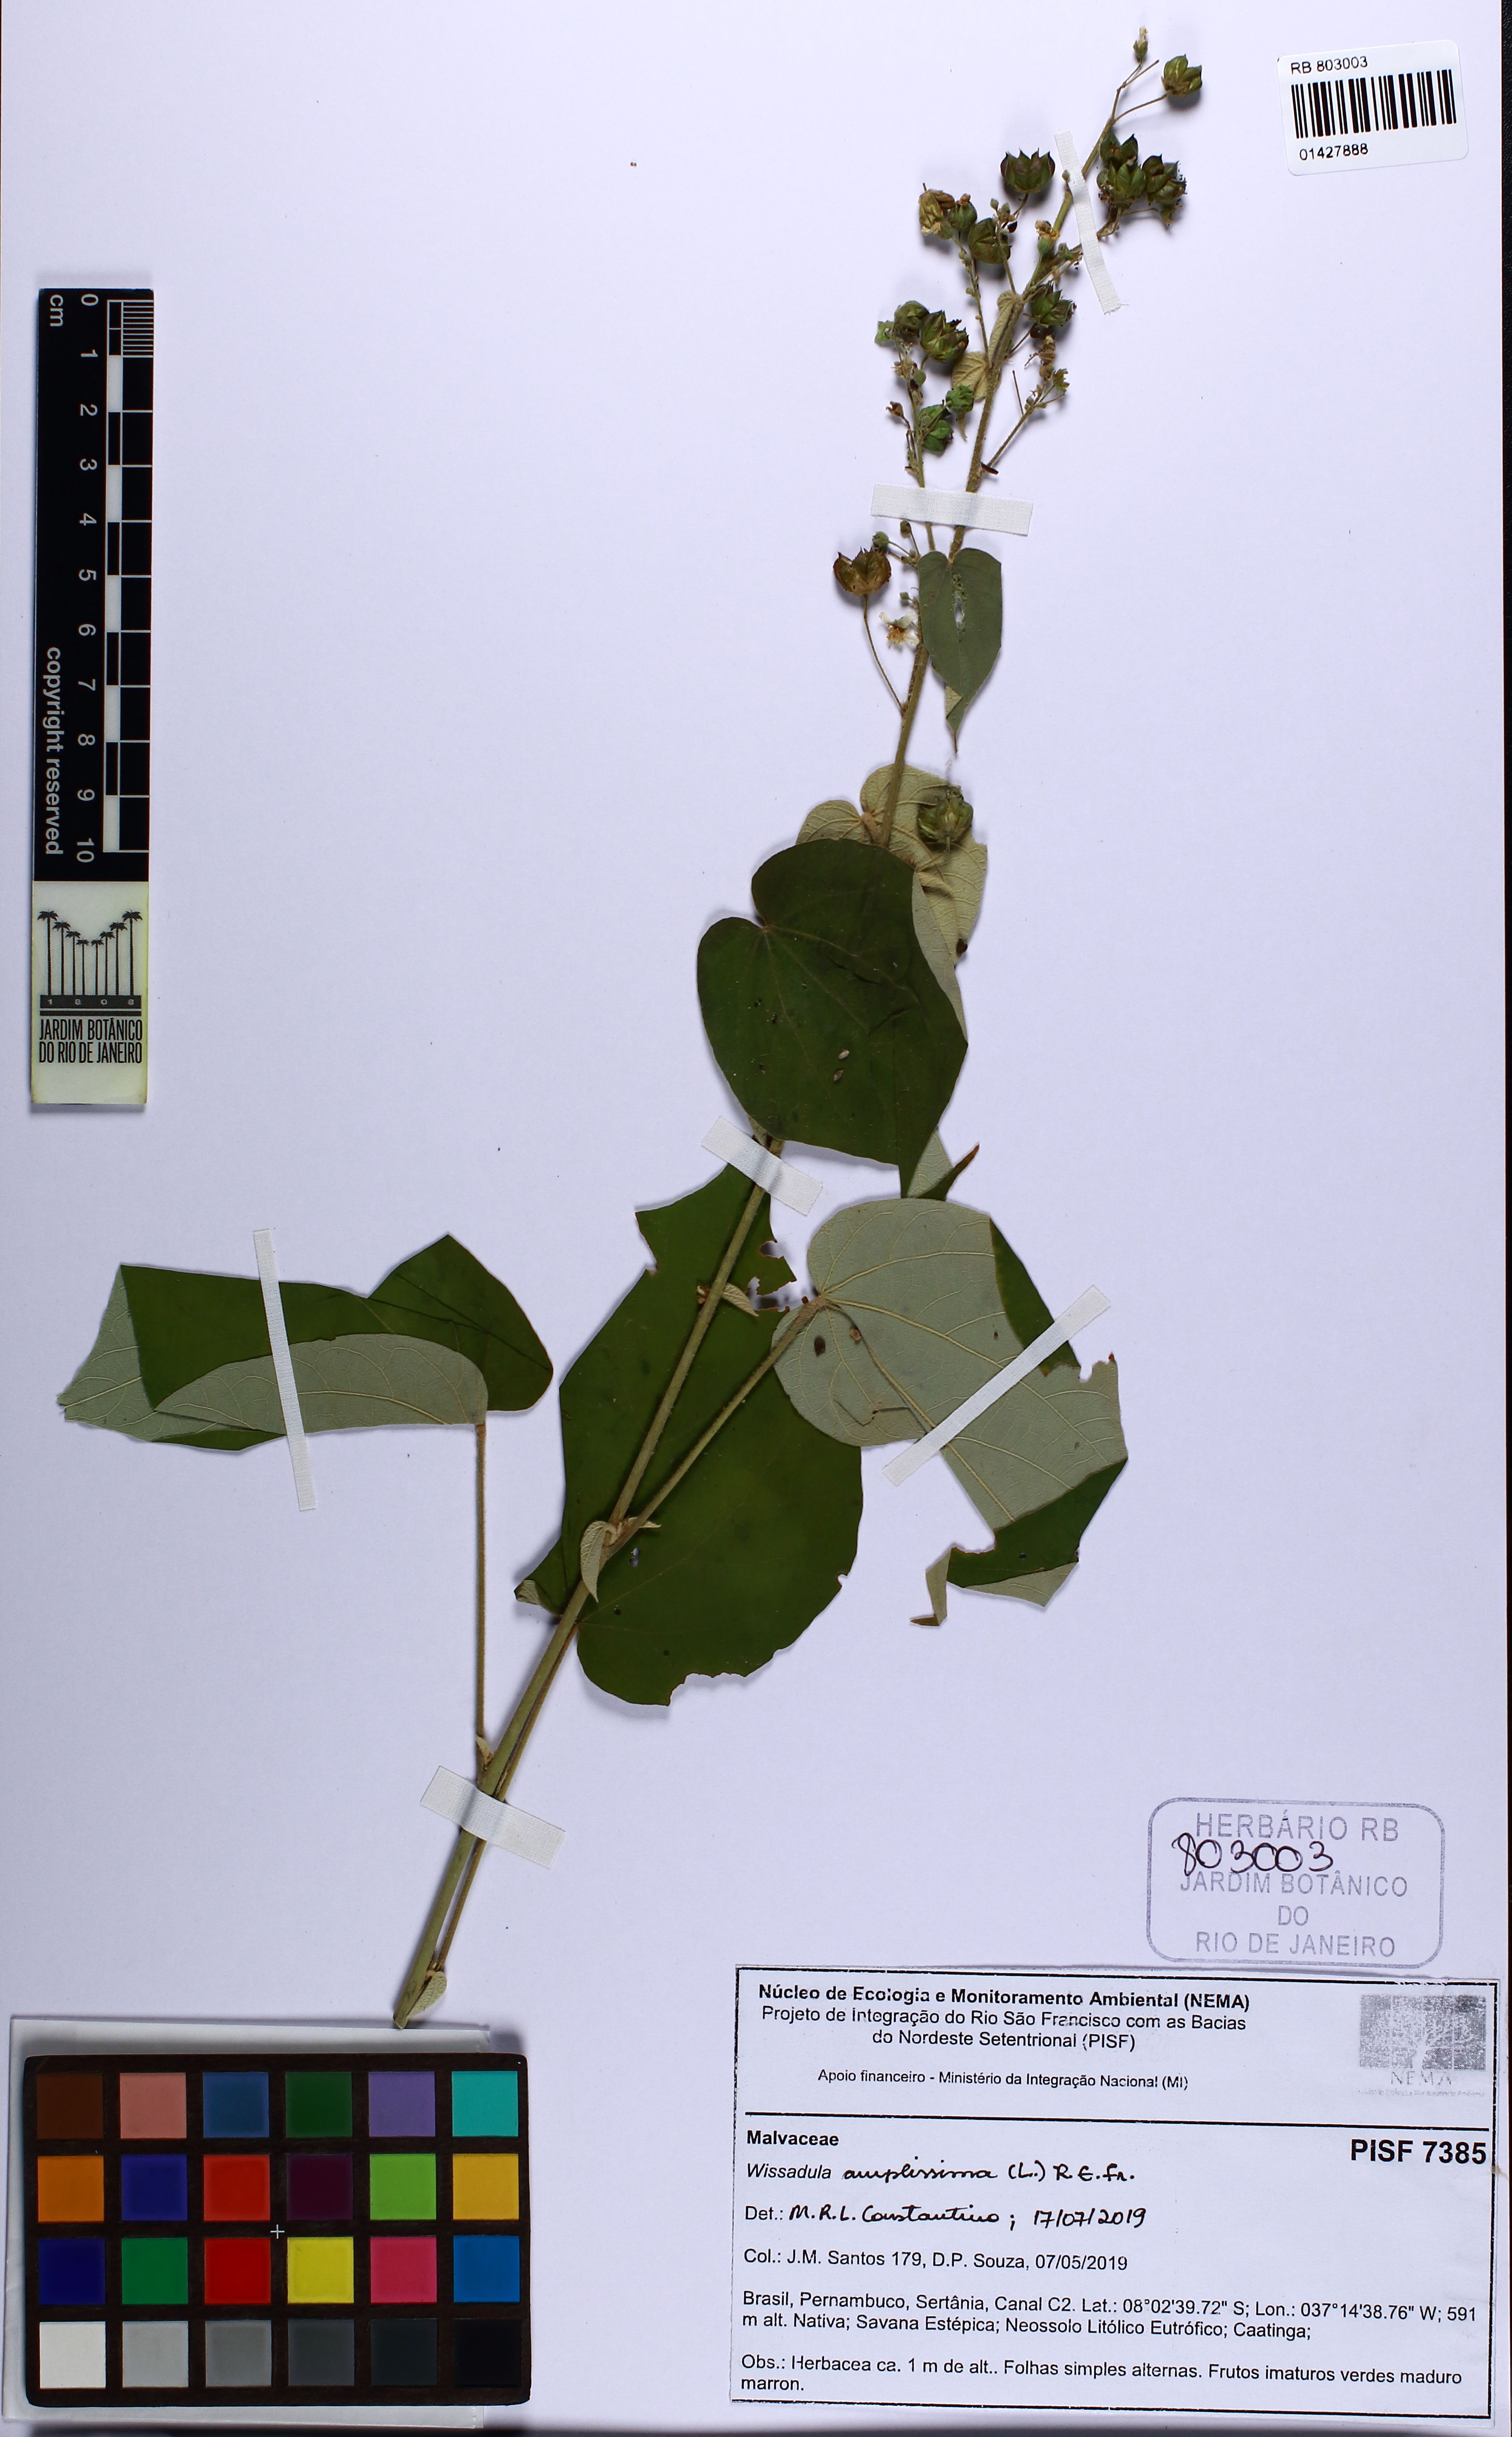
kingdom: Plantae
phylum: Tracheophyta
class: Magnoliopsida
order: Malvales
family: Malvaceae
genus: Wissadula
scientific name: Wissadula amplissima
